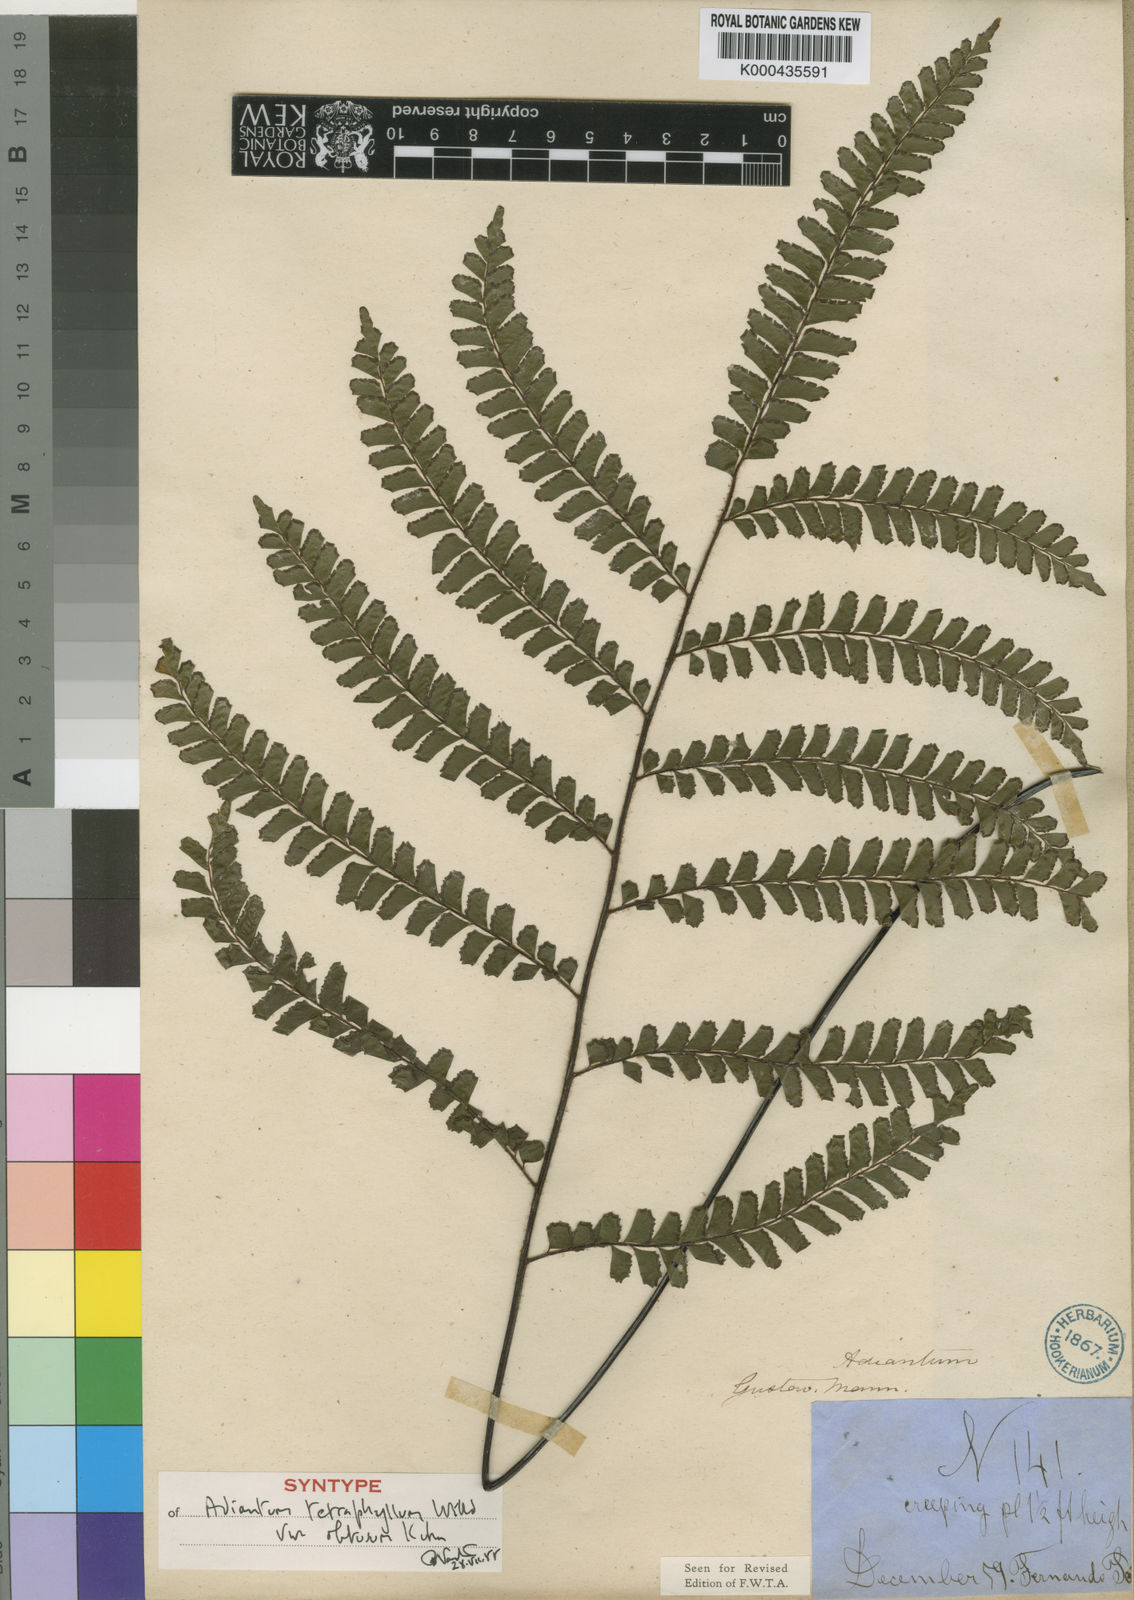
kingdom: Plantae
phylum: Tracheophyta
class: Polypodiopsida
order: Polypodiales
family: Pteridaceae
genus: Adiantum
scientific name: Adiantum
